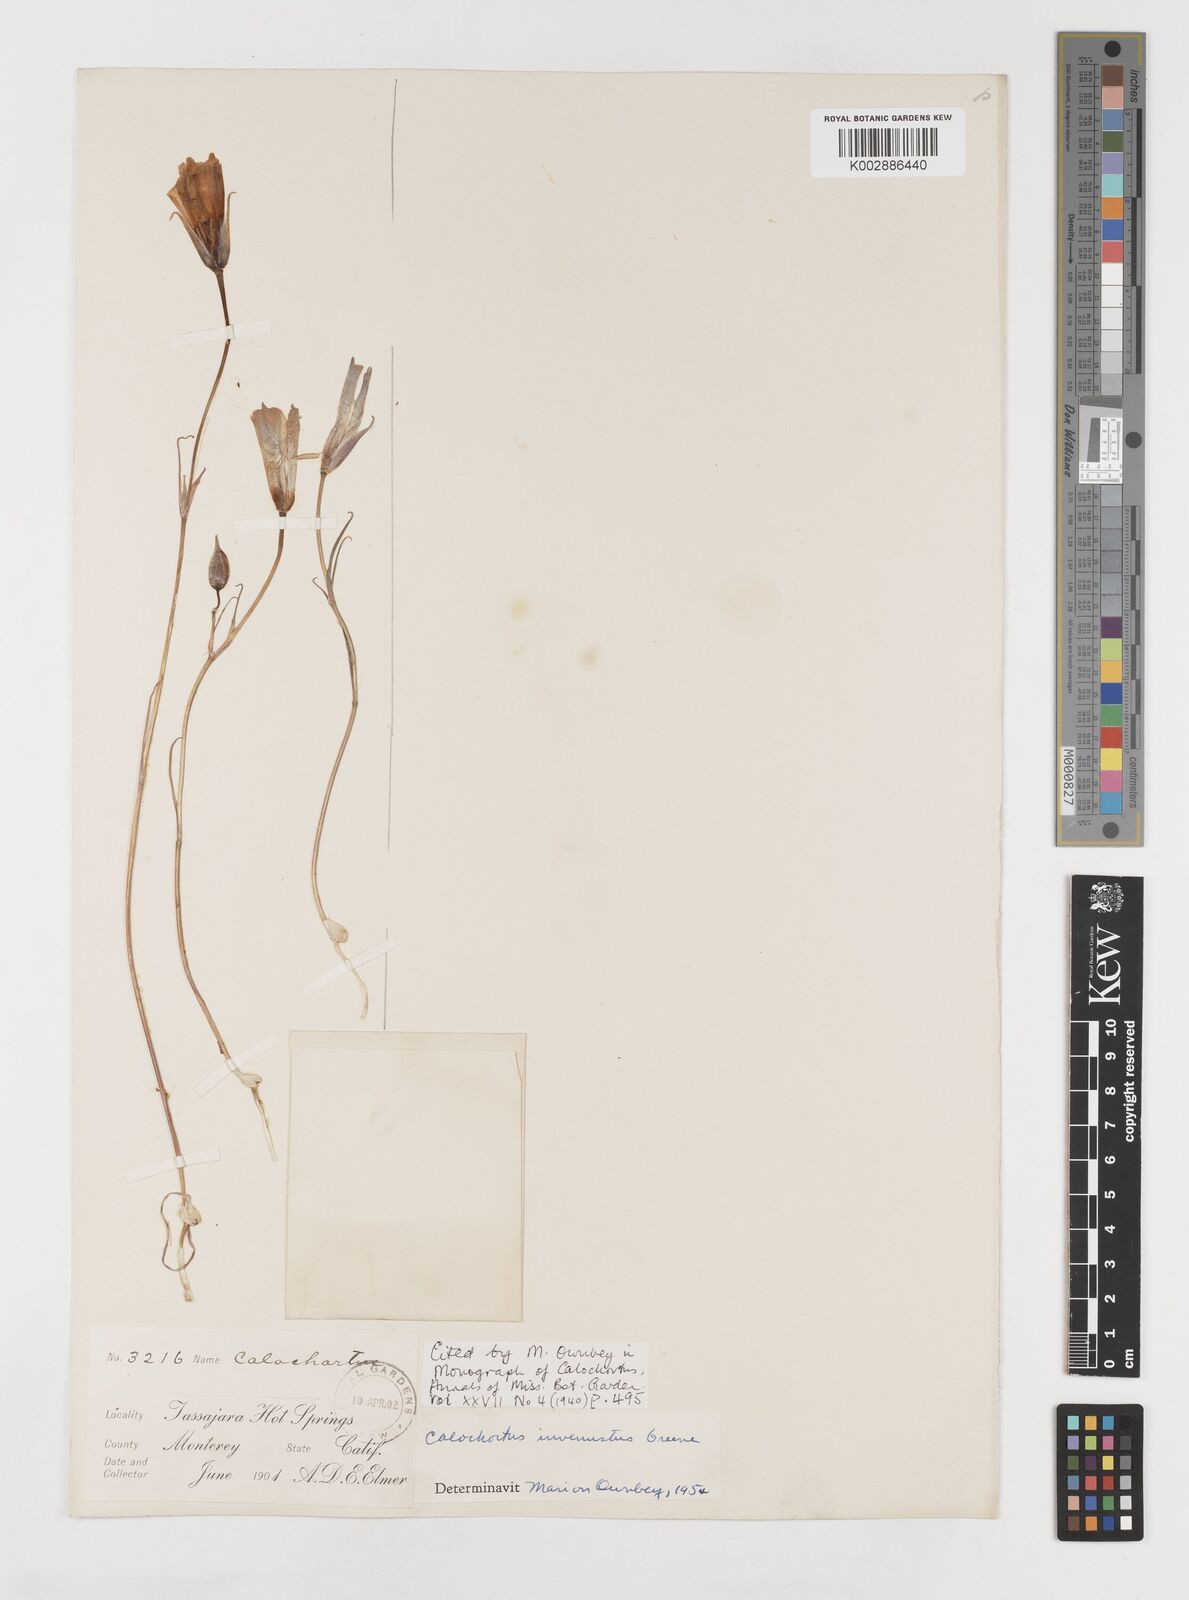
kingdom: Plantae
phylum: Tracheophyta
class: Liliopsida
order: Liliales
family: Liliaceae
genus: Calochortus
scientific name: Calochortus invenustus
